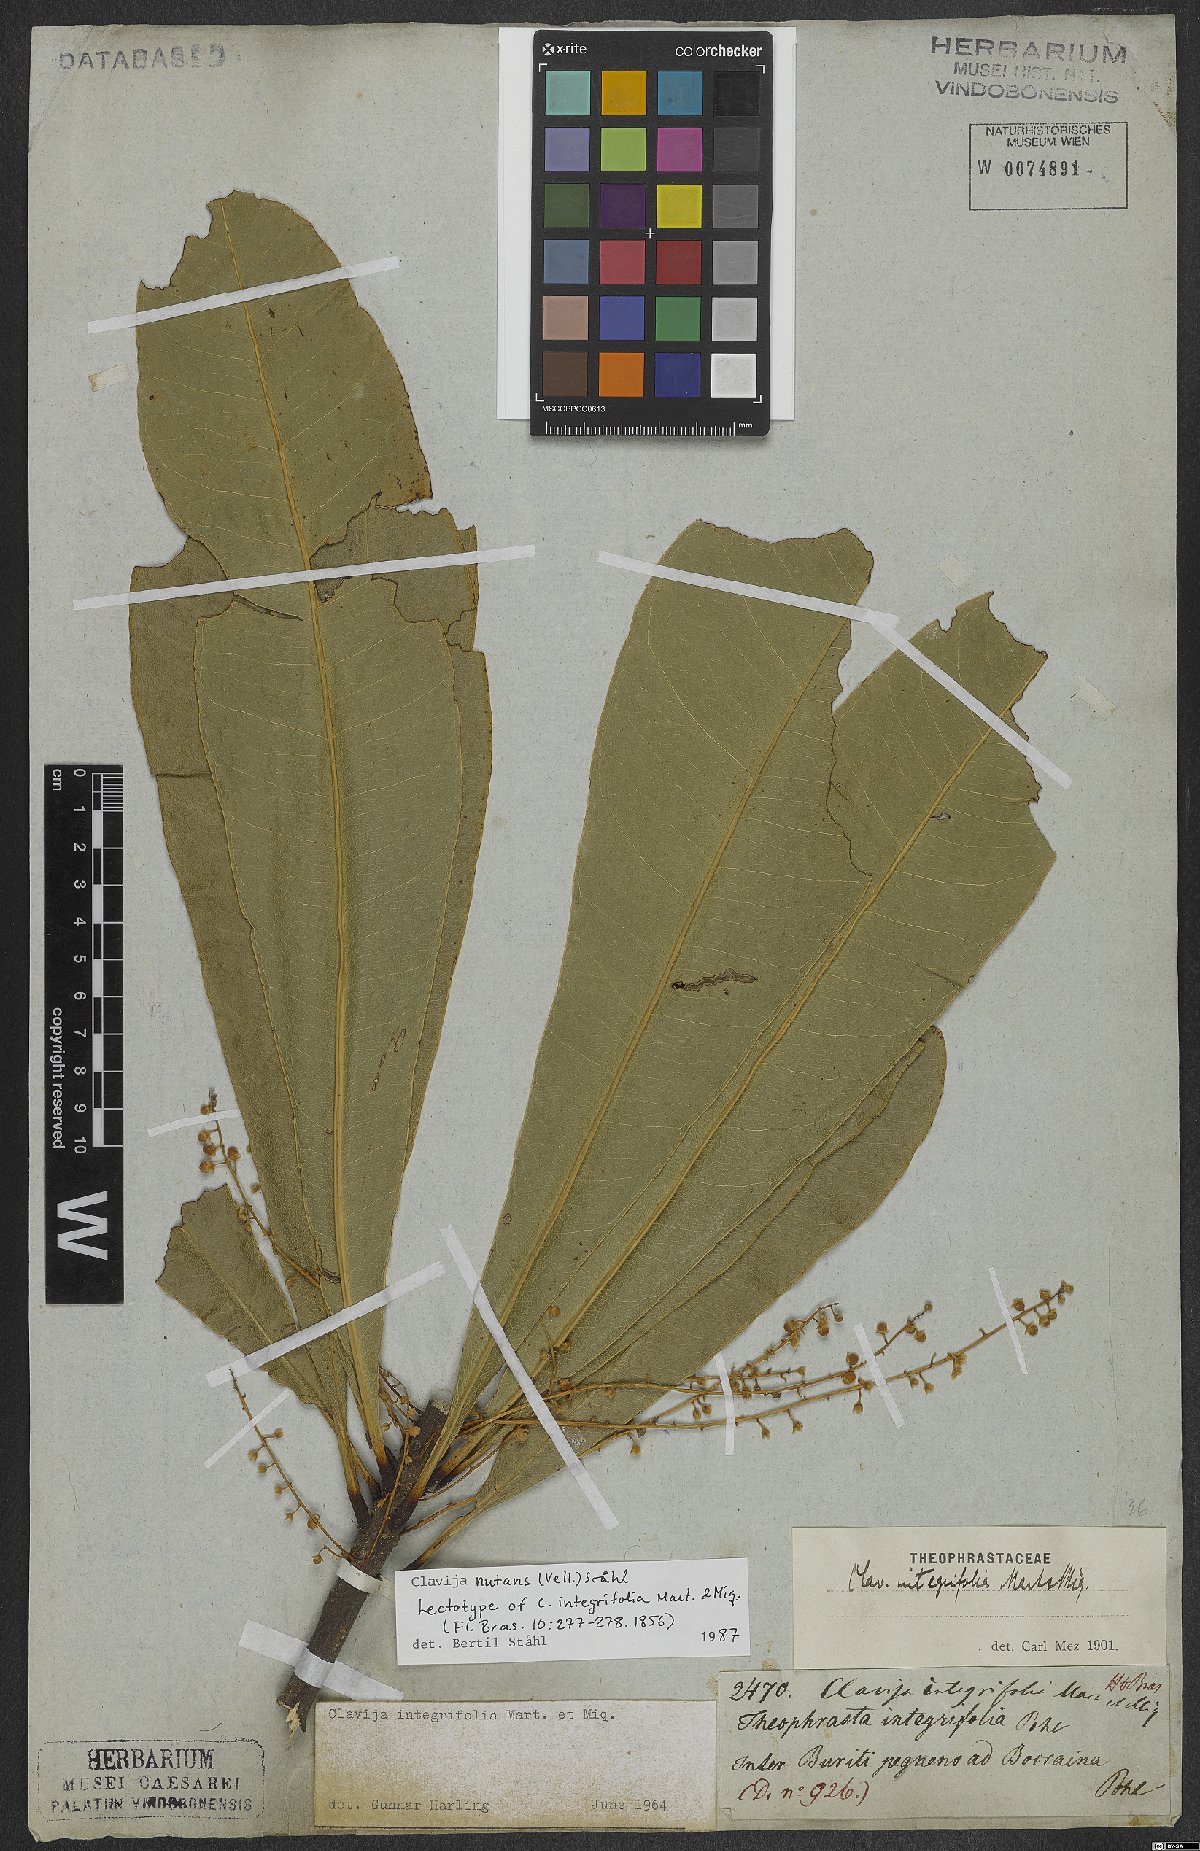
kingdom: Plantae
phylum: Tracheophyta
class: Magnoliopsida
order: Ericales
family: Primulaceae
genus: Clavija
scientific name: Clavija nutans
